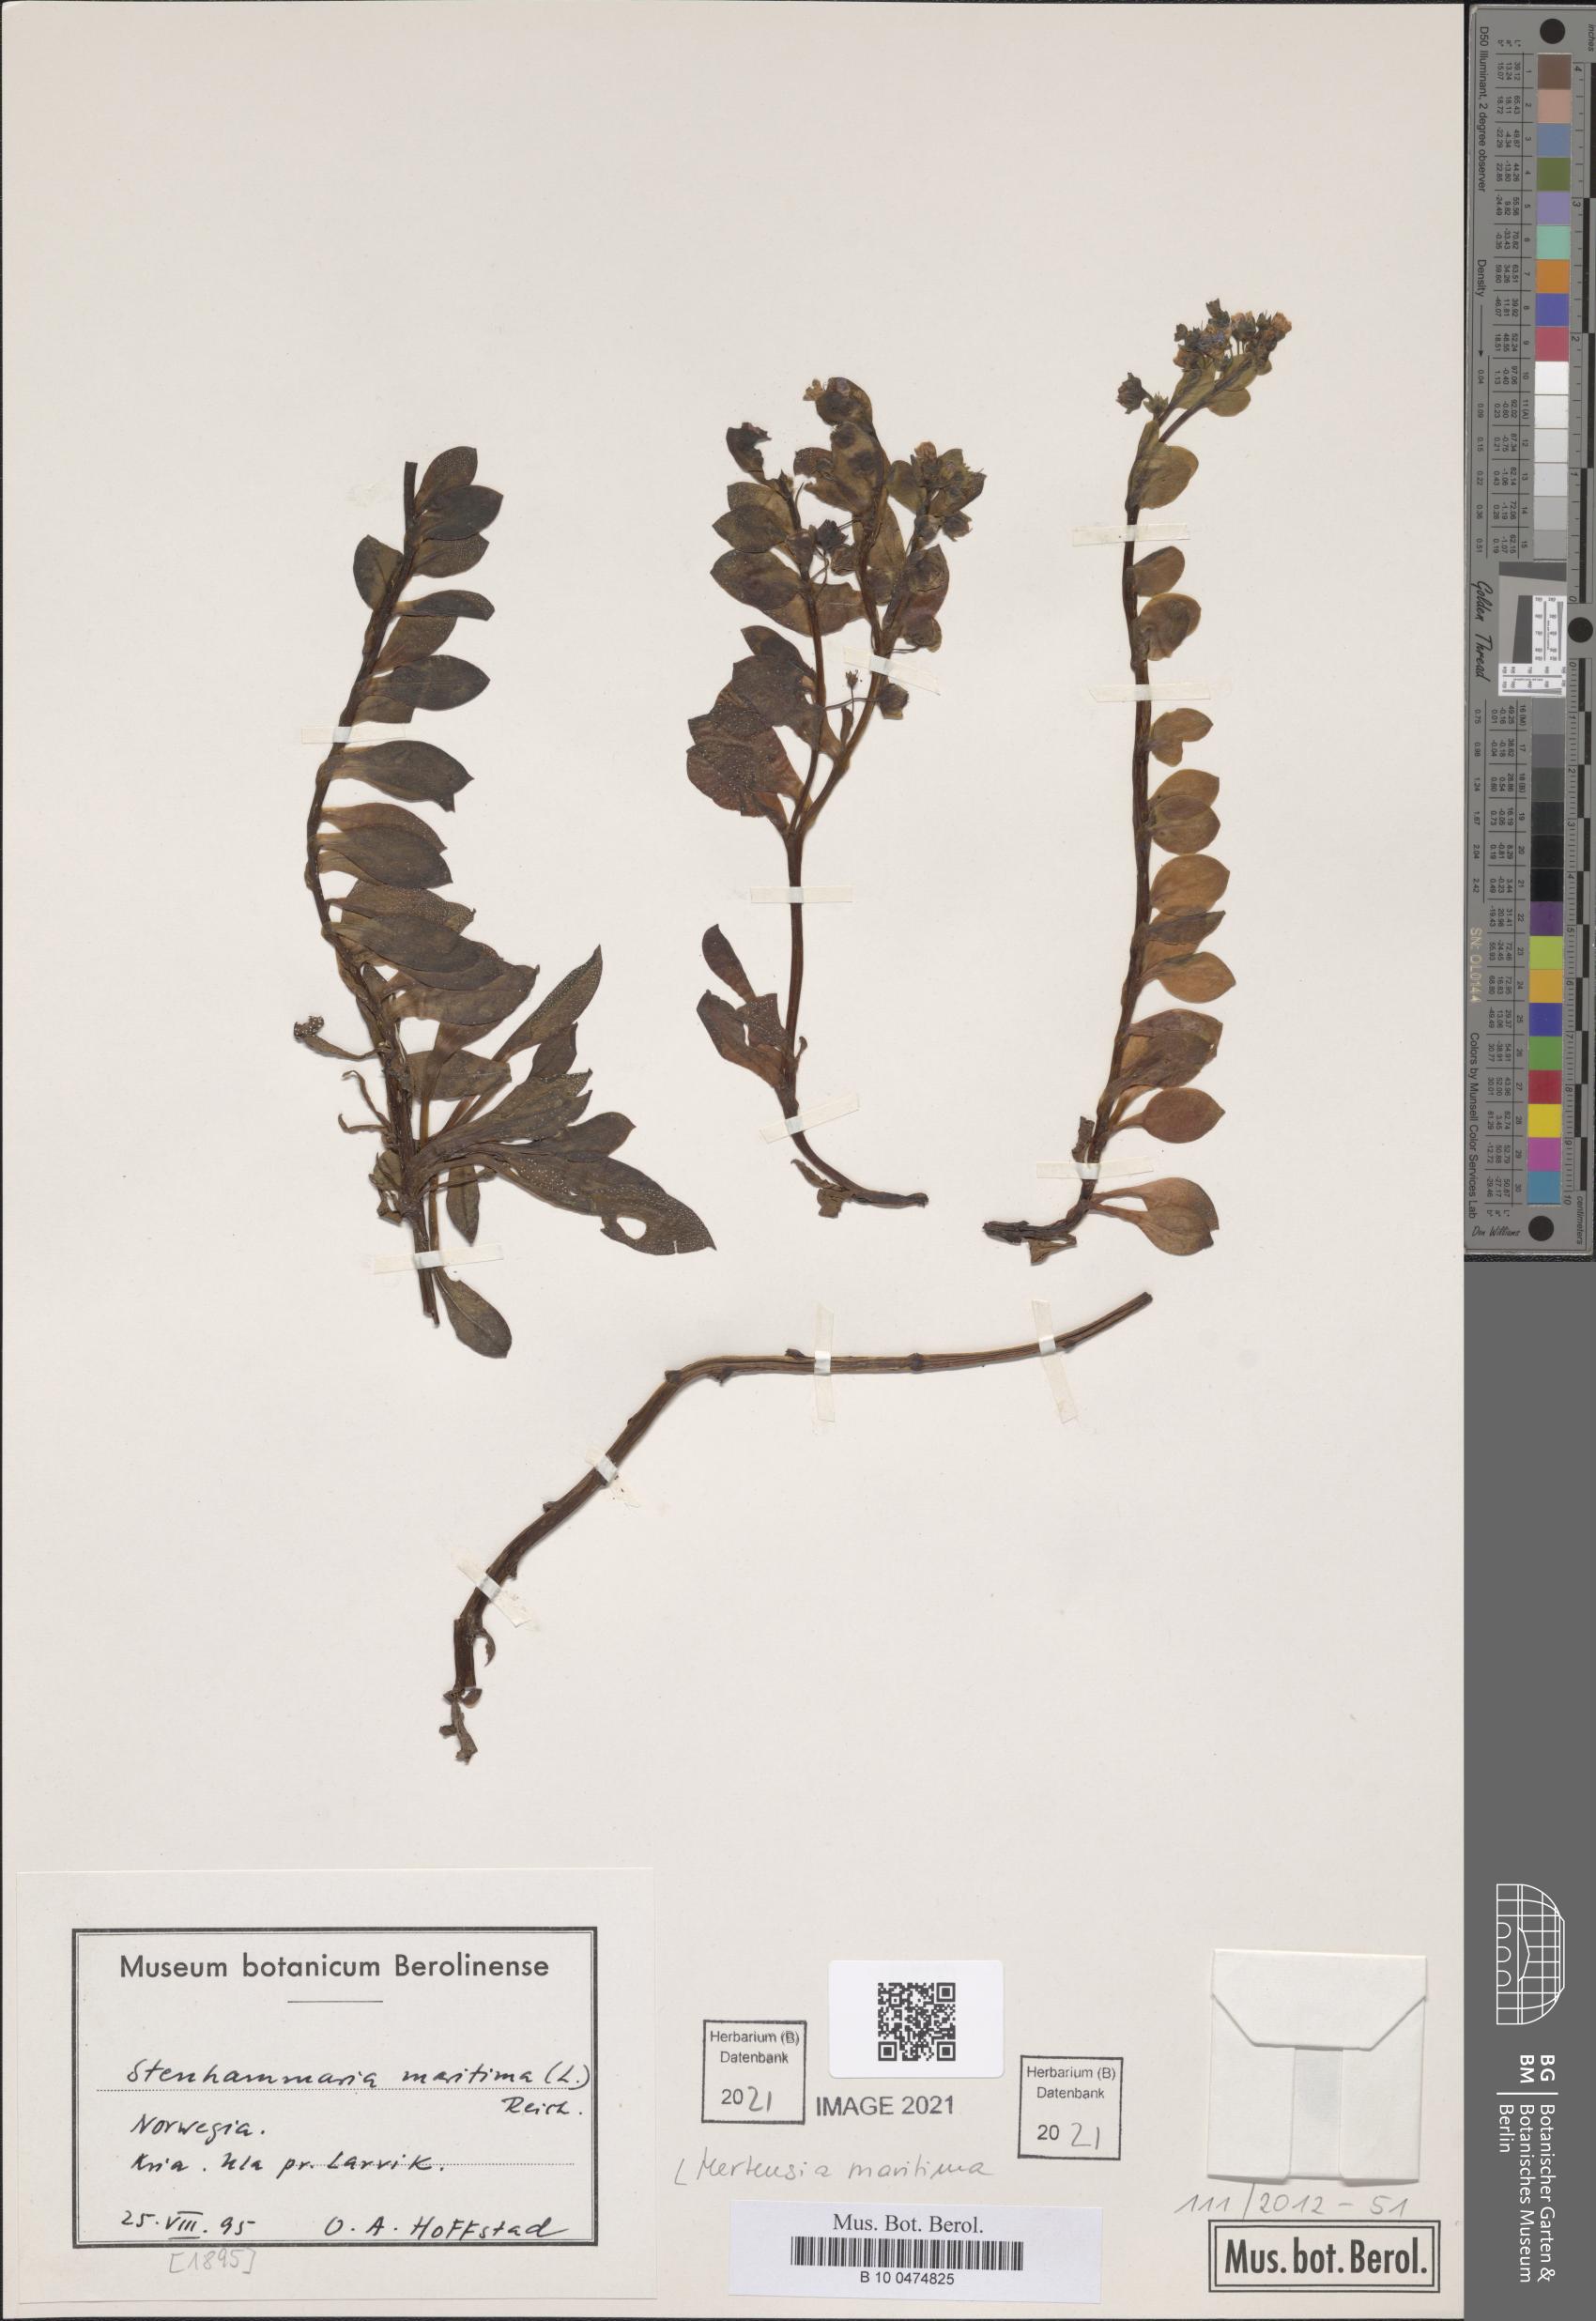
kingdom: Plantae
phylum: Tracheophyta
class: Magnoliopsida
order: Boraginales
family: Boraginaceae
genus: Mertensia
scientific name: Mertensia maritima
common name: Oysterplant
